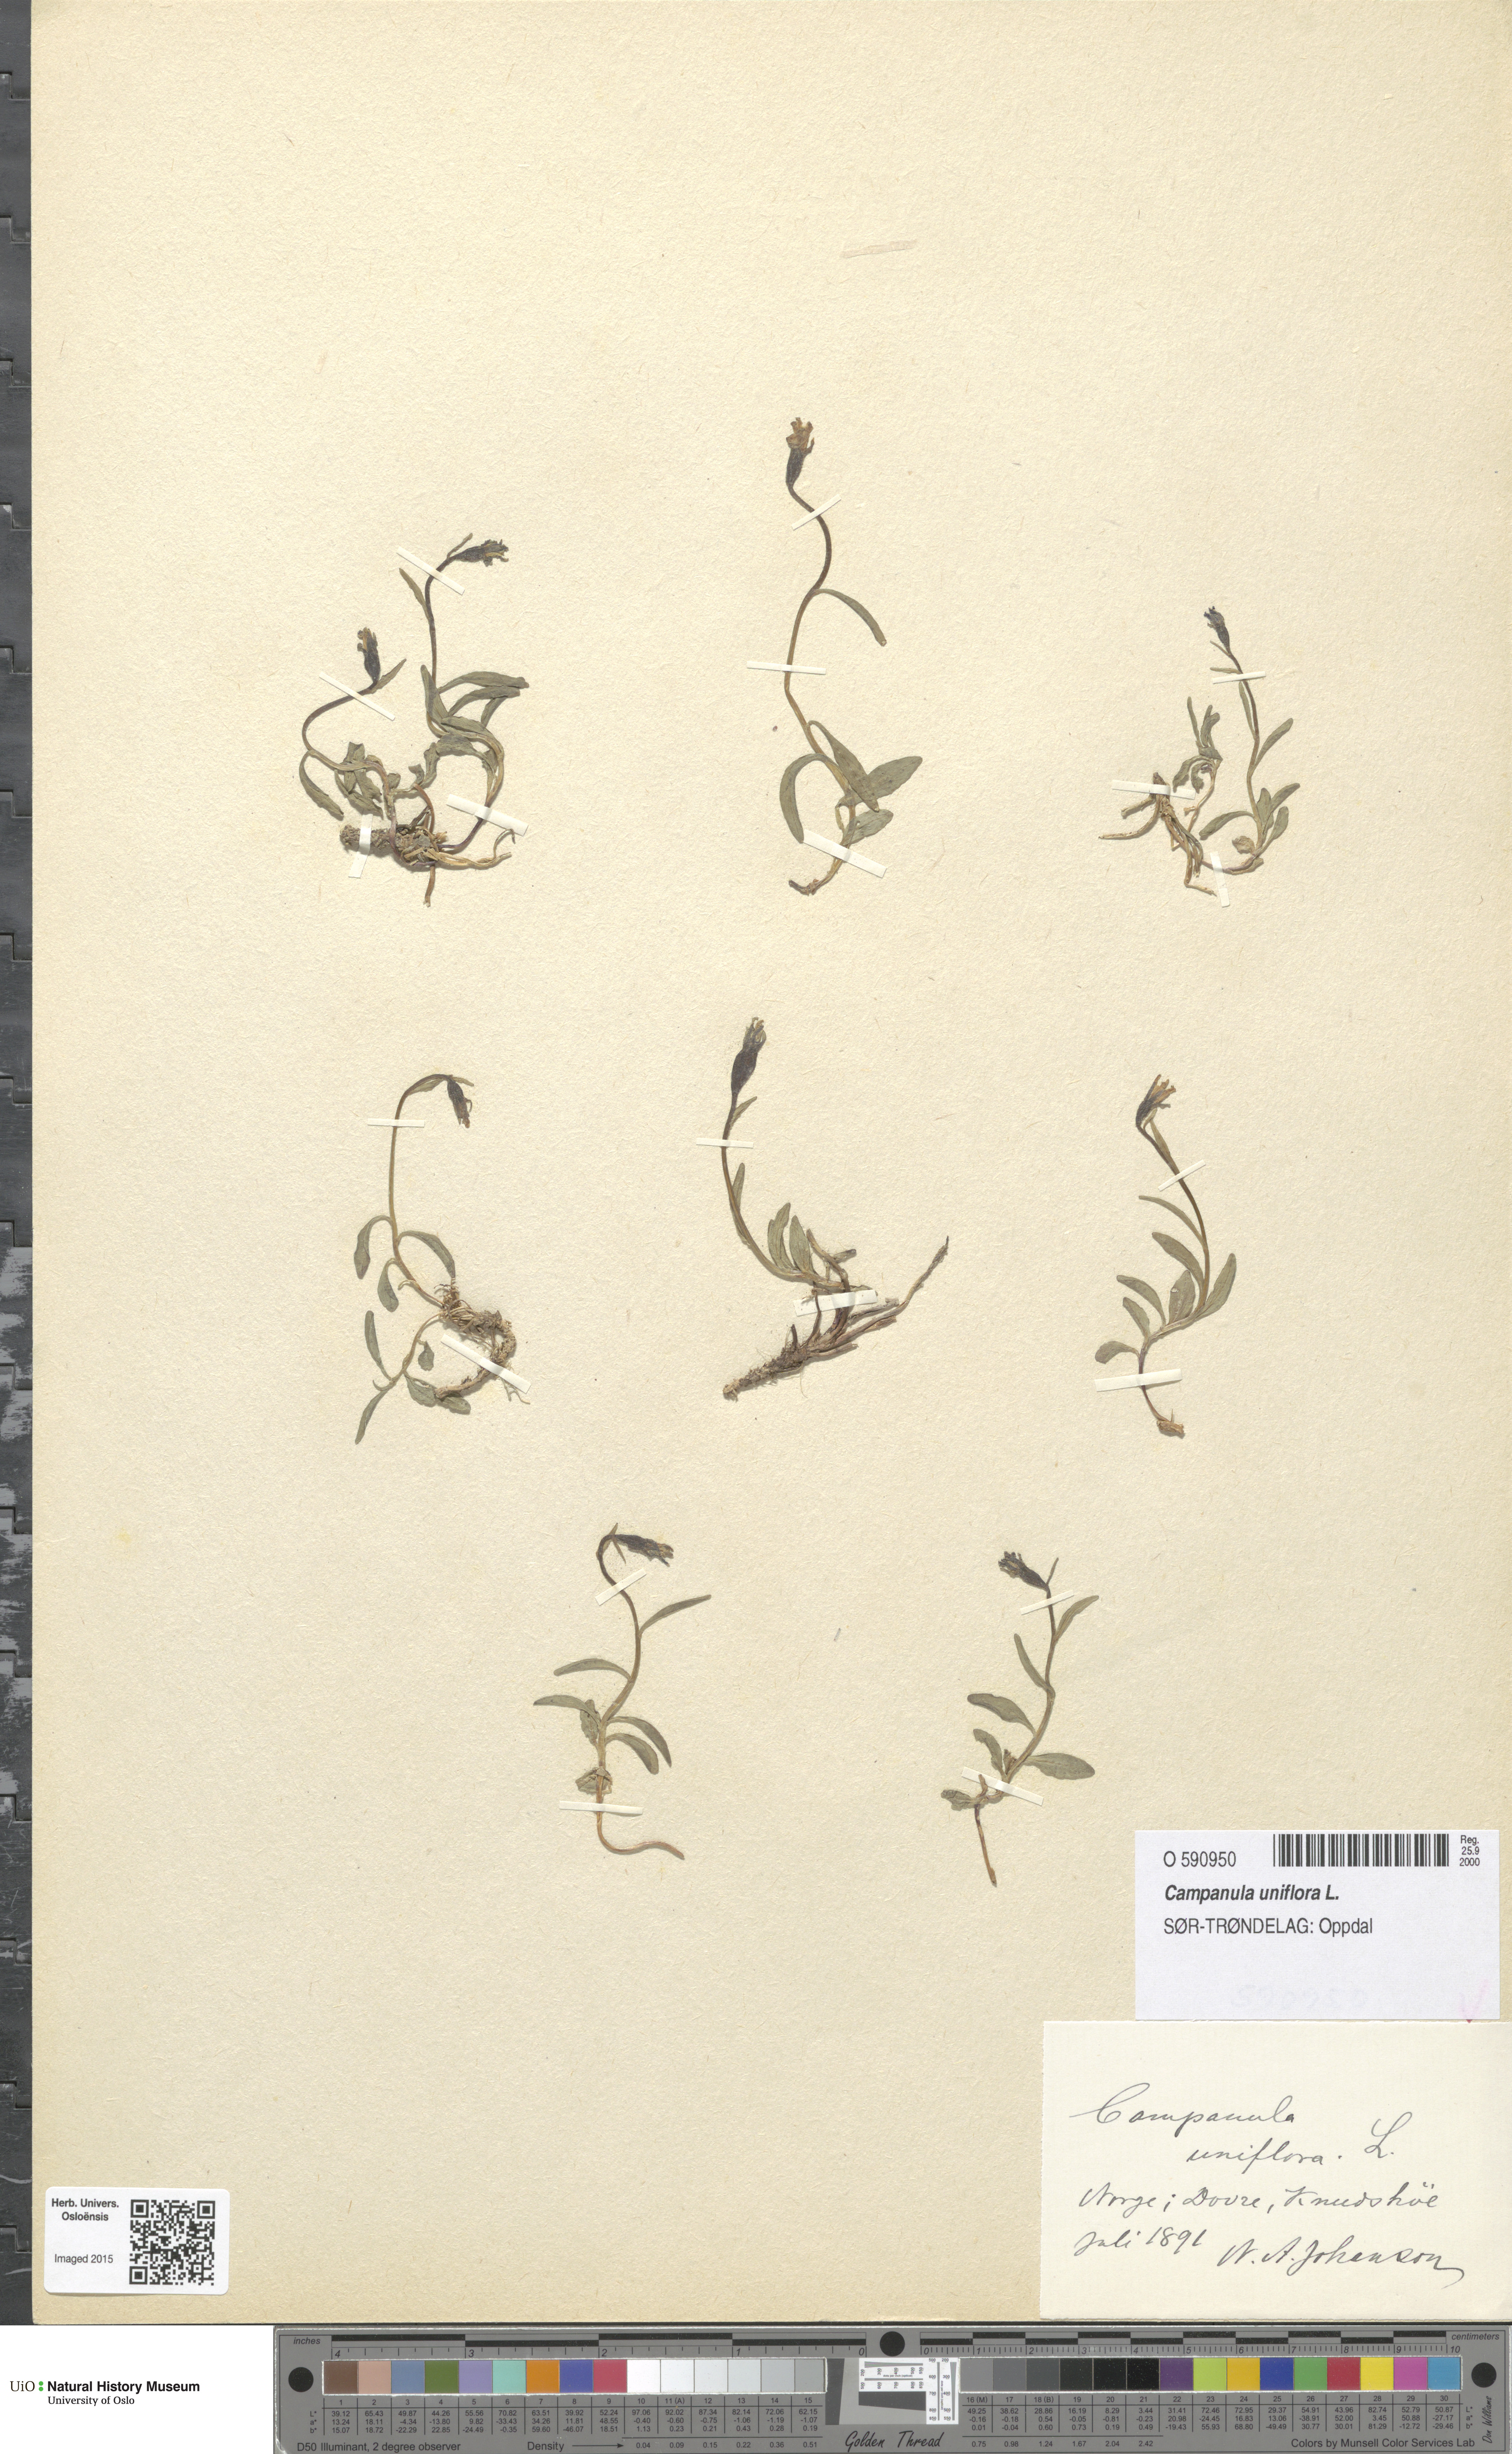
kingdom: Plantae
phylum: Tracheophyta
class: Magnoliopsida
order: Asterales
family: Campanulaceae
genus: Melanocalyx
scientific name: Melanocalyx uniflora
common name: Alpine harebell
